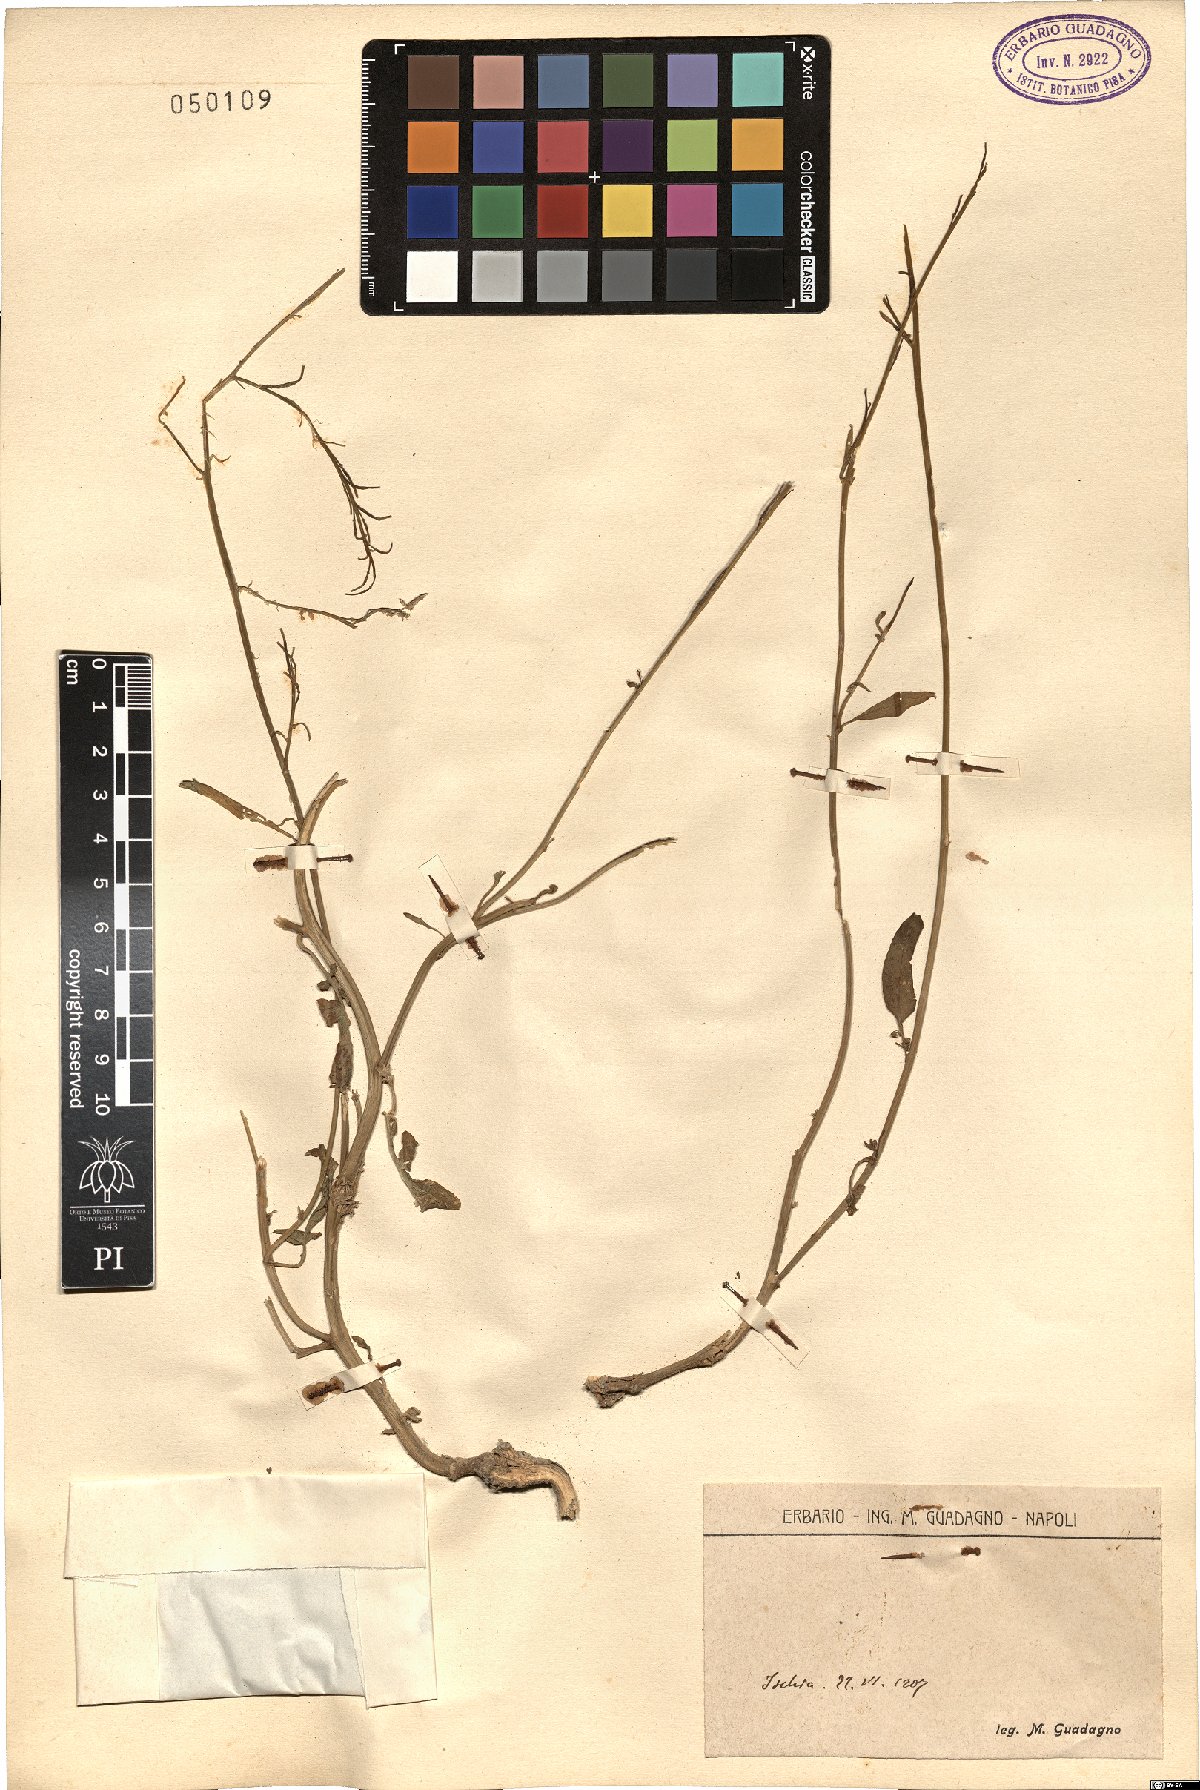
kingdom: Plantae
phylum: Tracheophyta
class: Magnoliopsida
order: Brassicales
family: Brassicaceae
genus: Brassica
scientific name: Brassica
